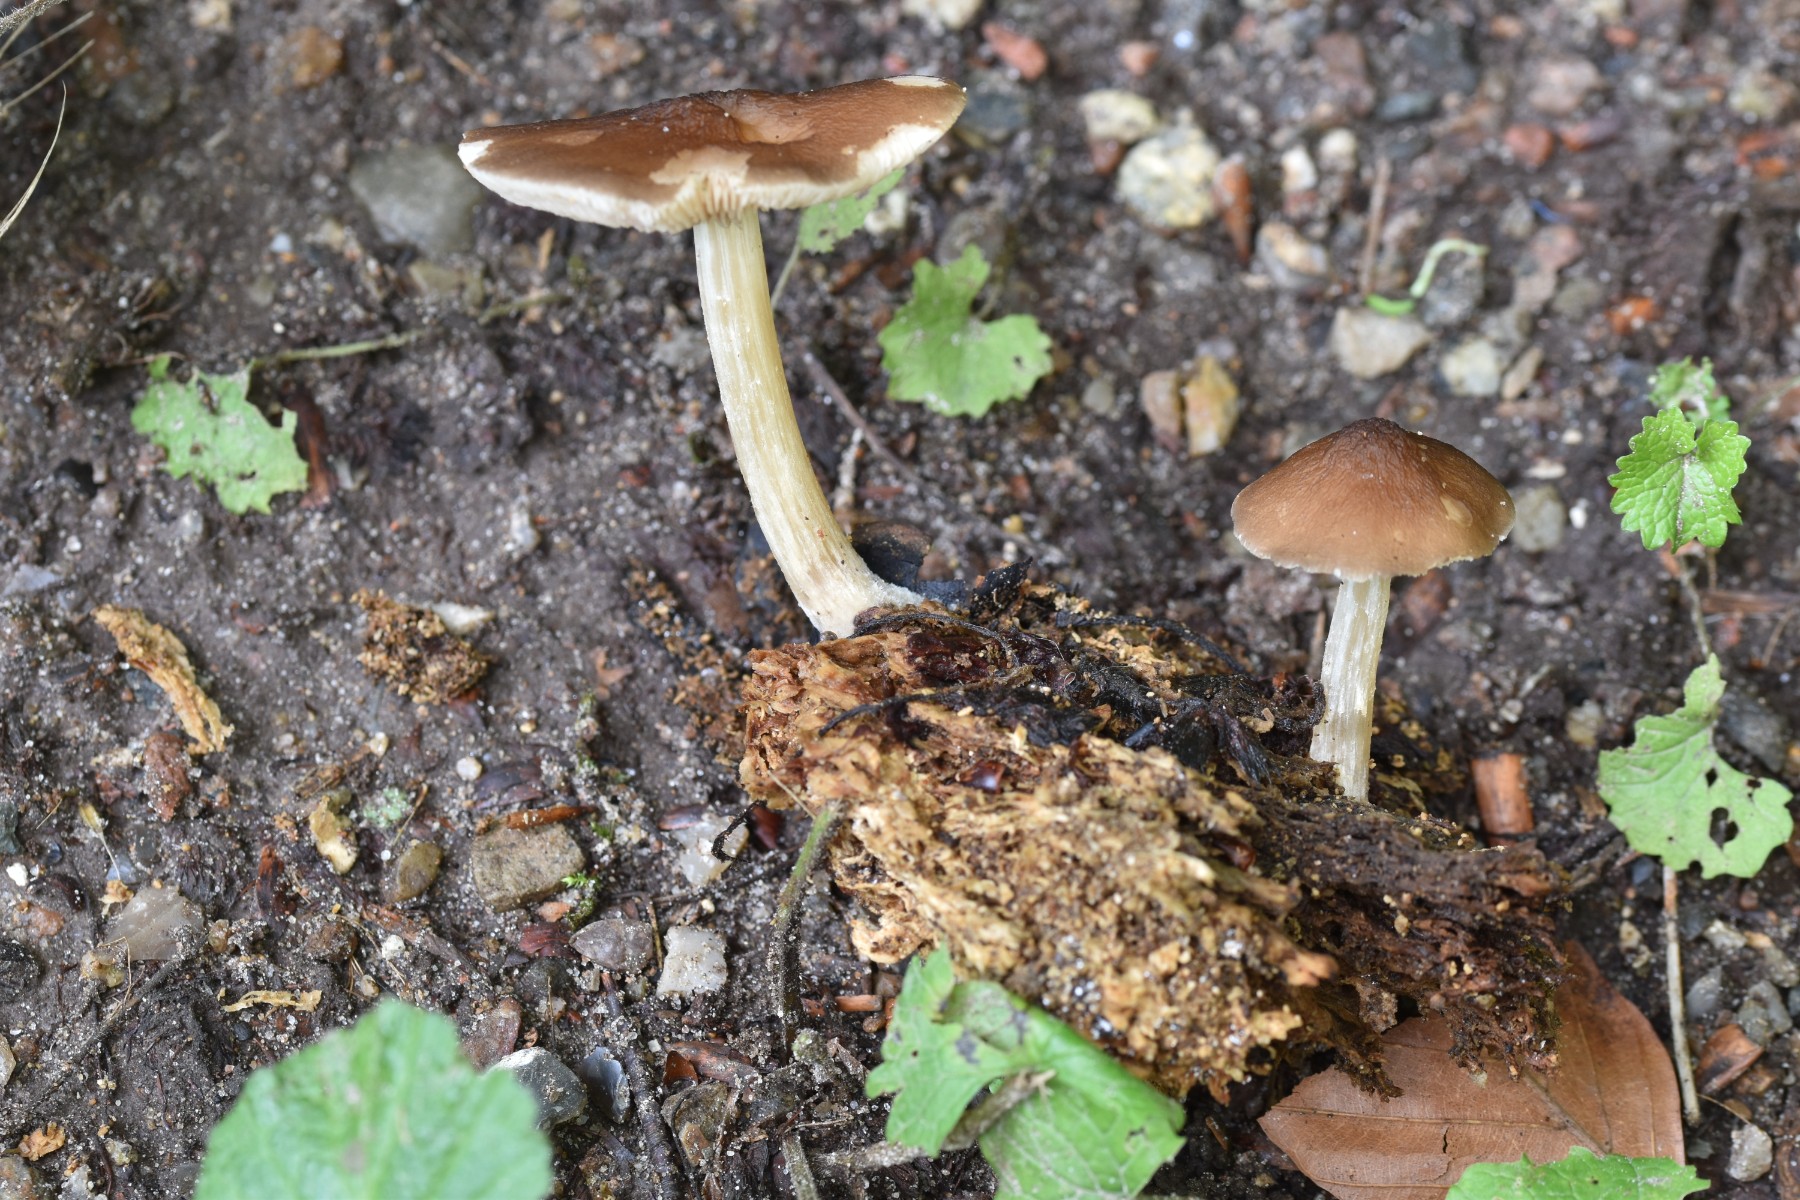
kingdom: Fungi
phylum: Basidiomycota
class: Agaricomycetes
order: Agaricales
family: Pluteaceae
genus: Pluteus
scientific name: Pluteus phlebophorus
